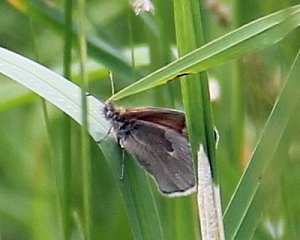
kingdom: Animalia
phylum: Arthropoda
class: Insecta
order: Lepidoptera
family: Nymphalidae
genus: Coenonympha
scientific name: Coenonympha tullia
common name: Large Heath
